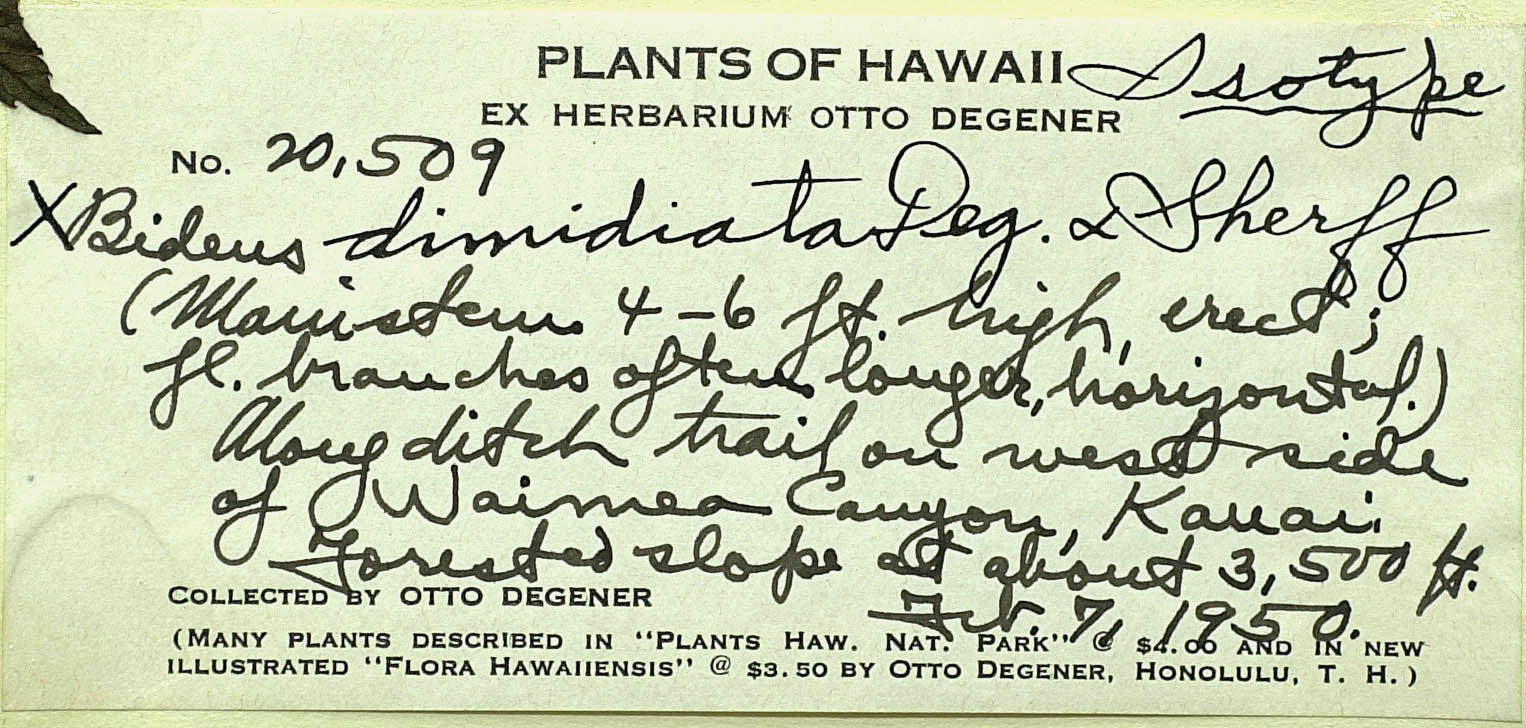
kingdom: Plantae
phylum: Tracheophyta
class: Magnoliopsida
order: Asterales
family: Asteraceae
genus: Bidens
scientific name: Bidens cosmoides
